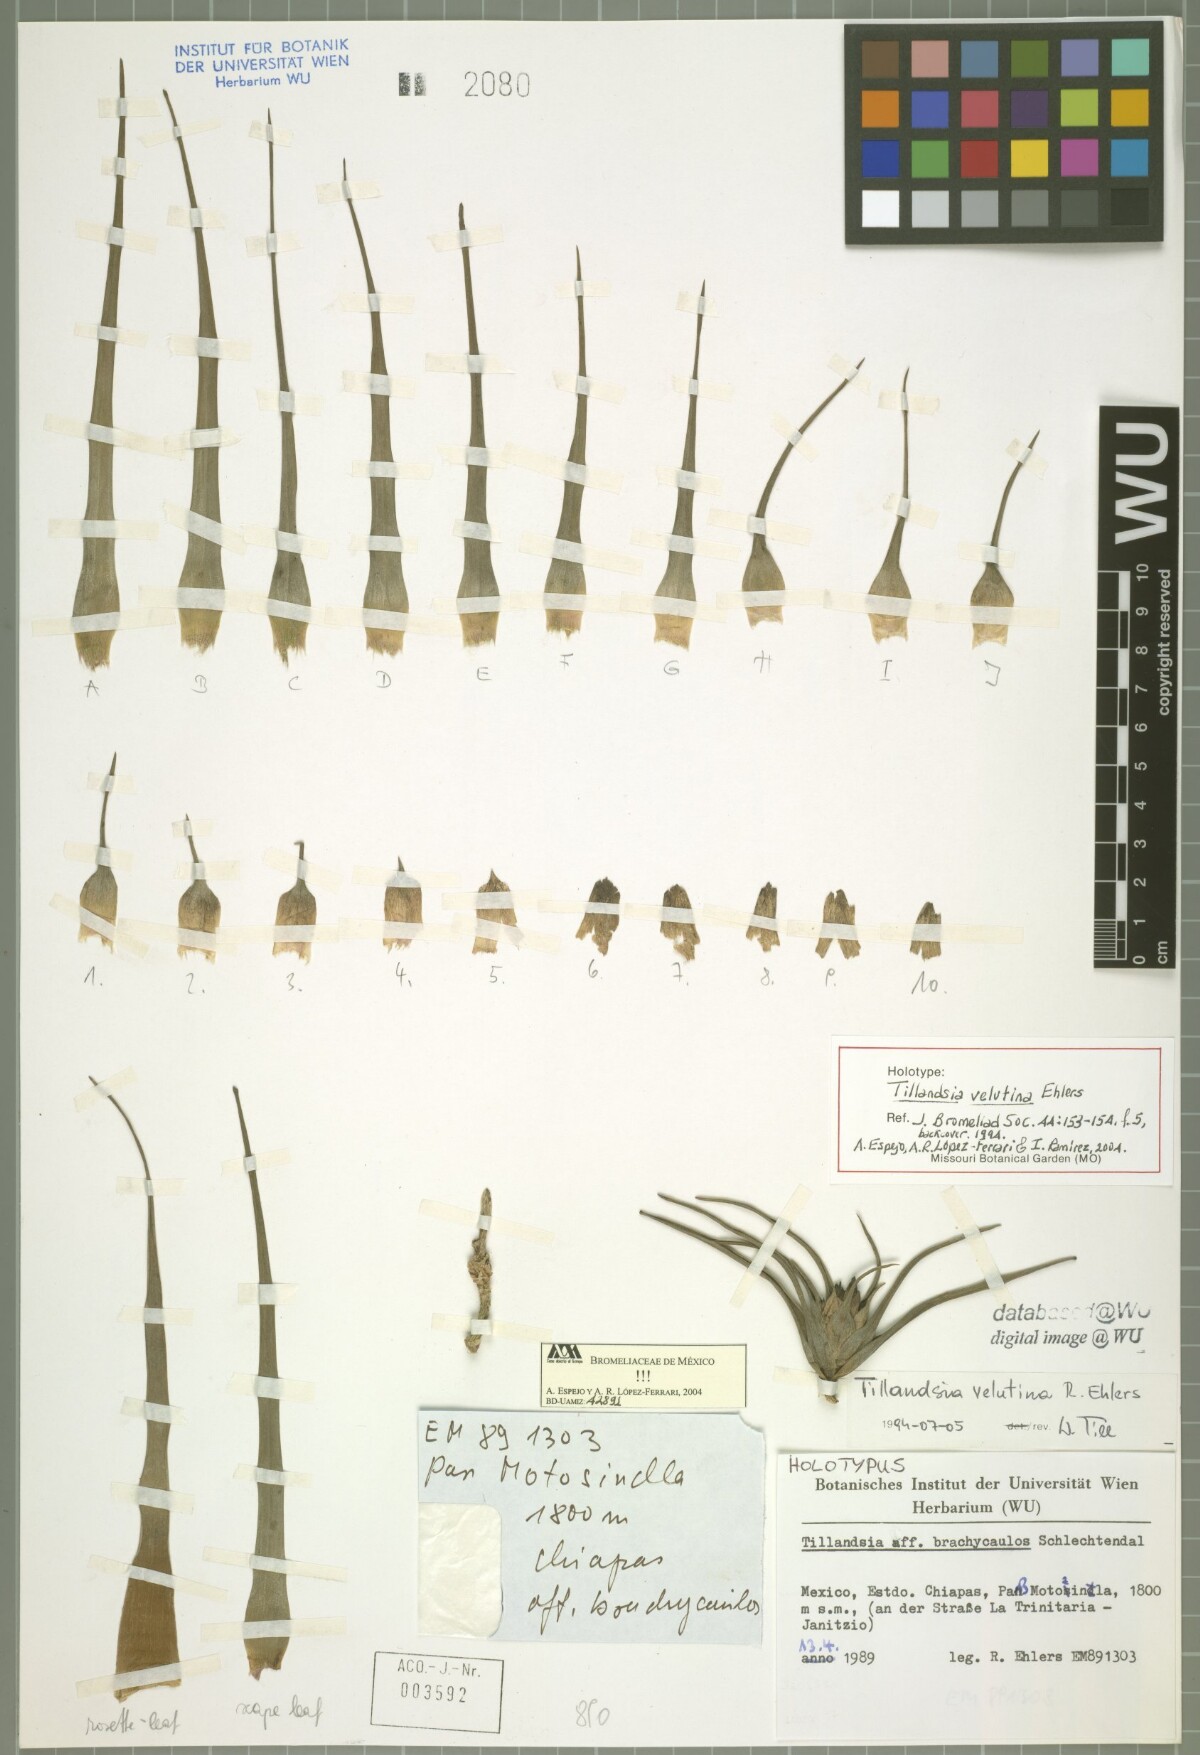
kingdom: Plantae
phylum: Tracheophyta
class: Liliopsida
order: Poales
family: Bromeliaceae
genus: Tillandsia
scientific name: Tillandsia velutina
